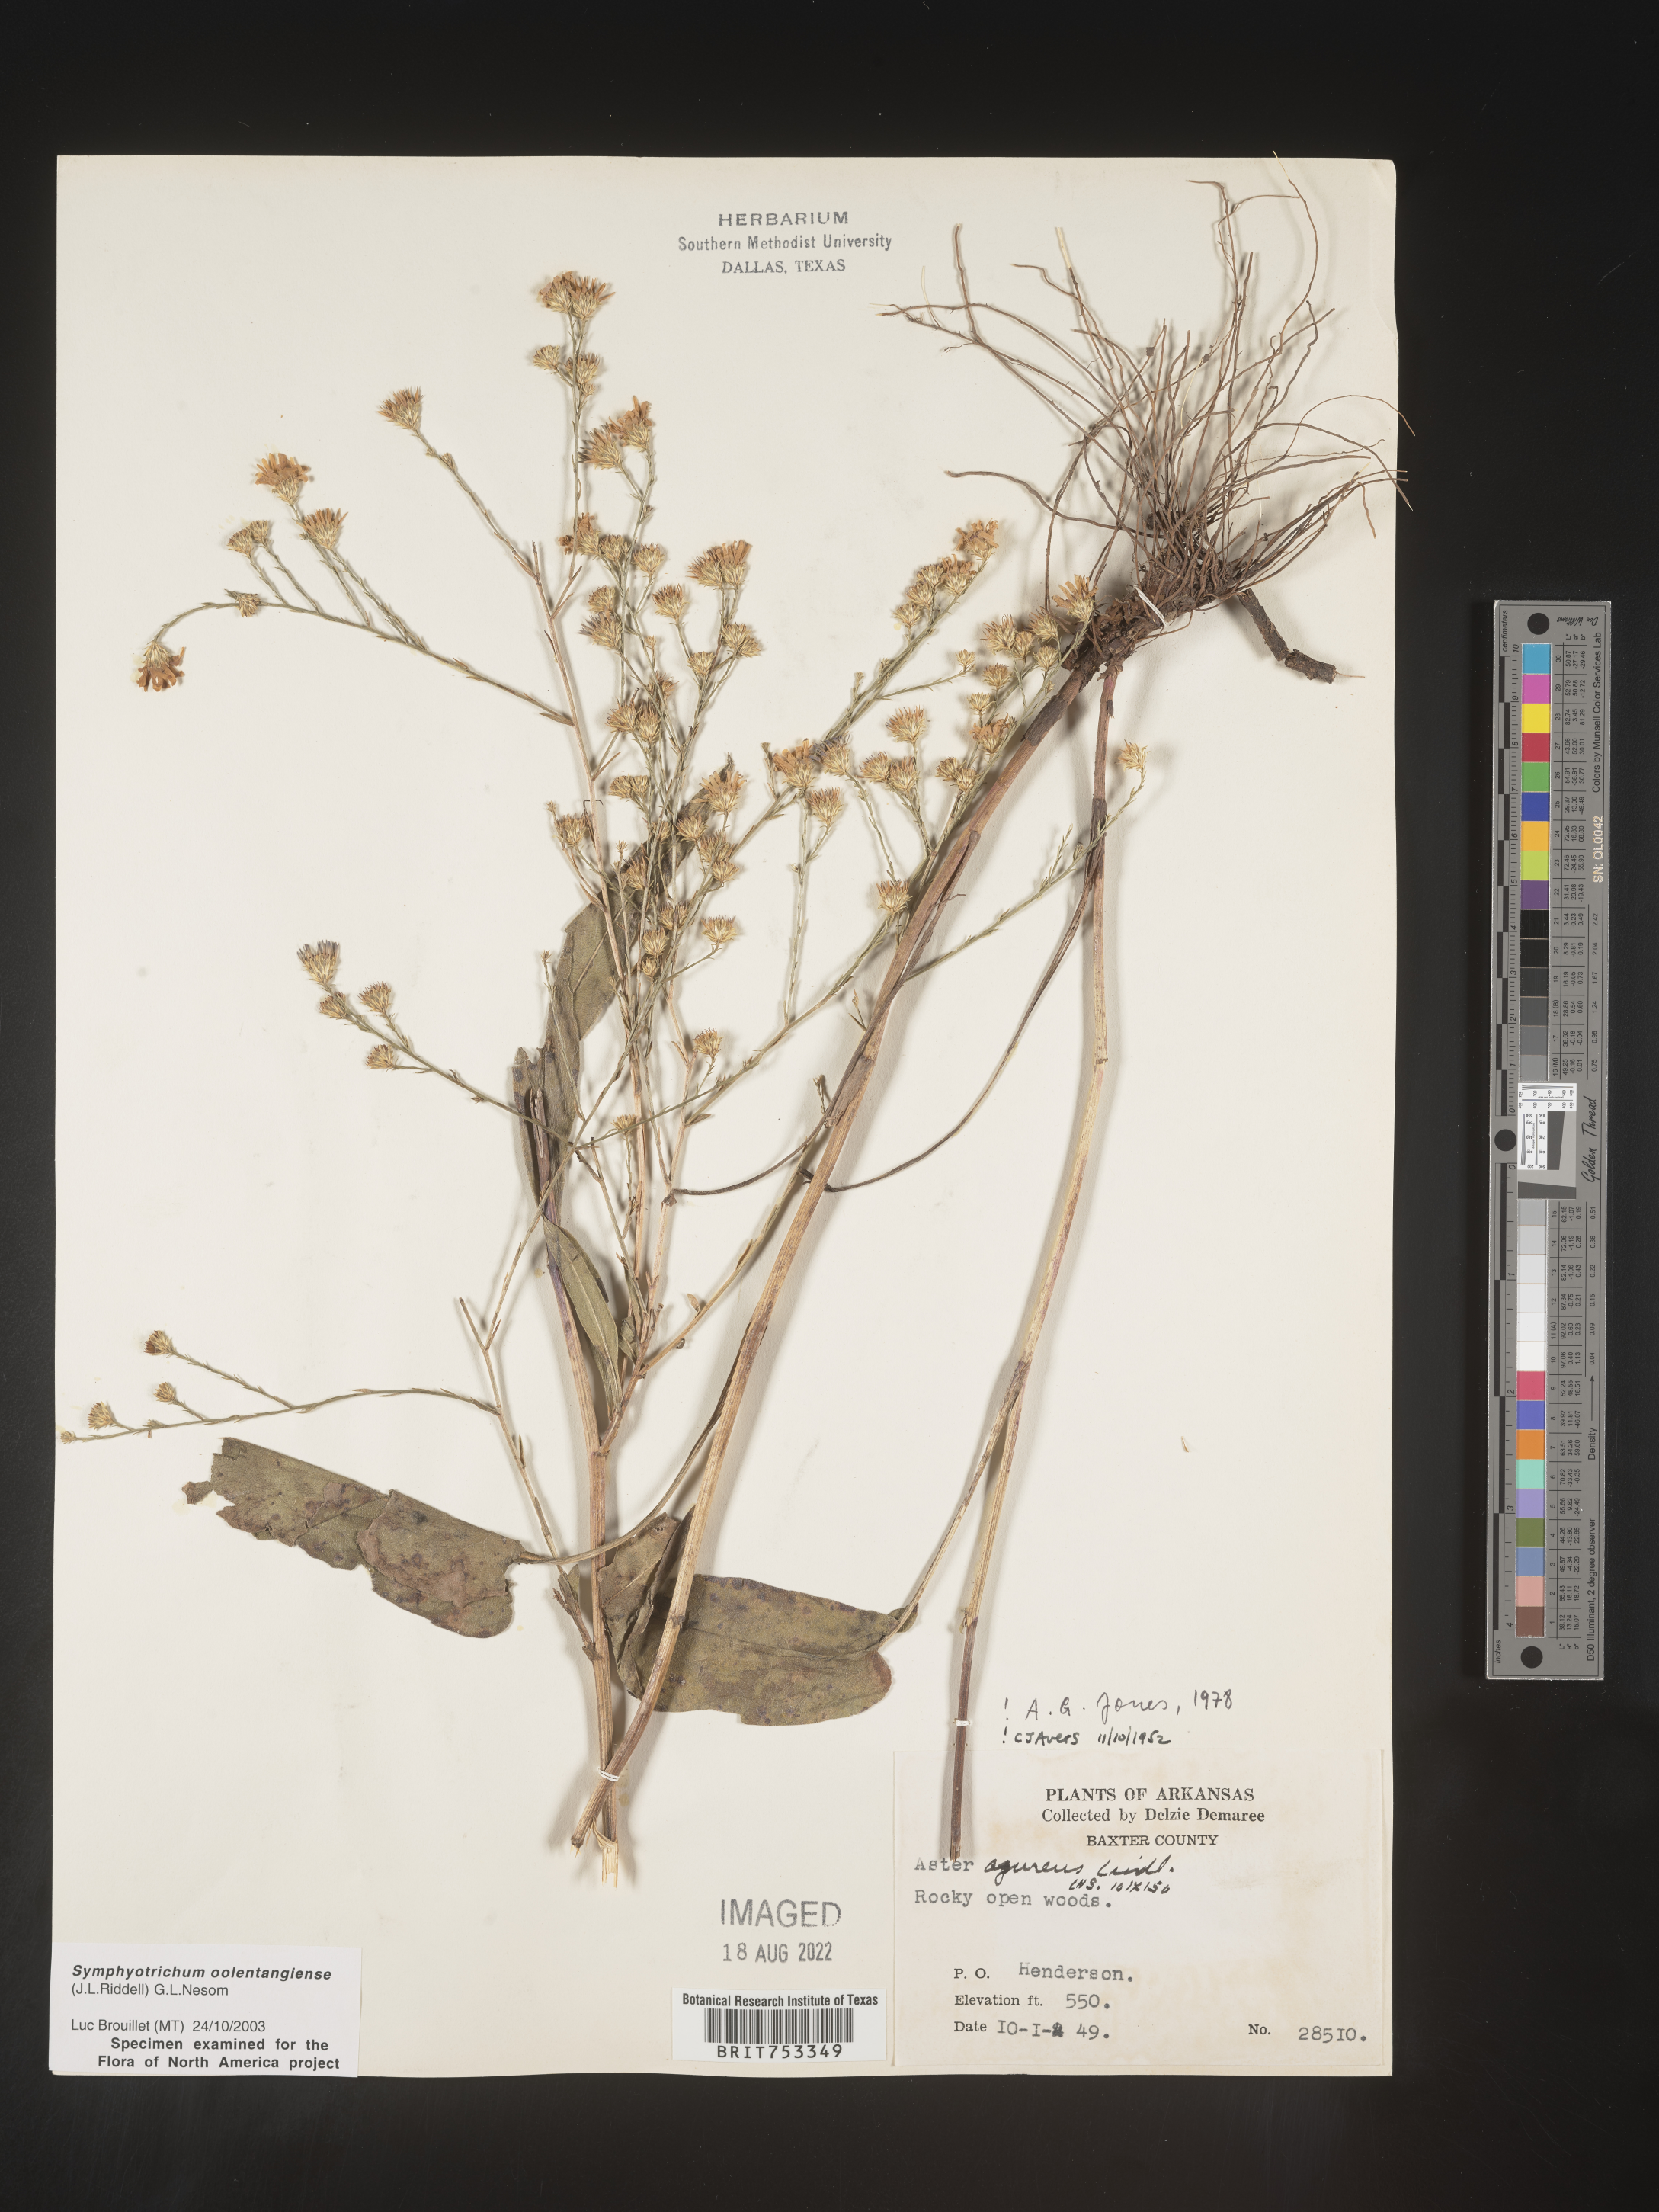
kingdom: Plantae
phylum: Tracheophyta
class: Magnoliopsida
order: Asterales
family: Asteraceae
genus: Symphyotrichum
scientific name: Symphyotrichum oolentangiense
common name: Azure aster
